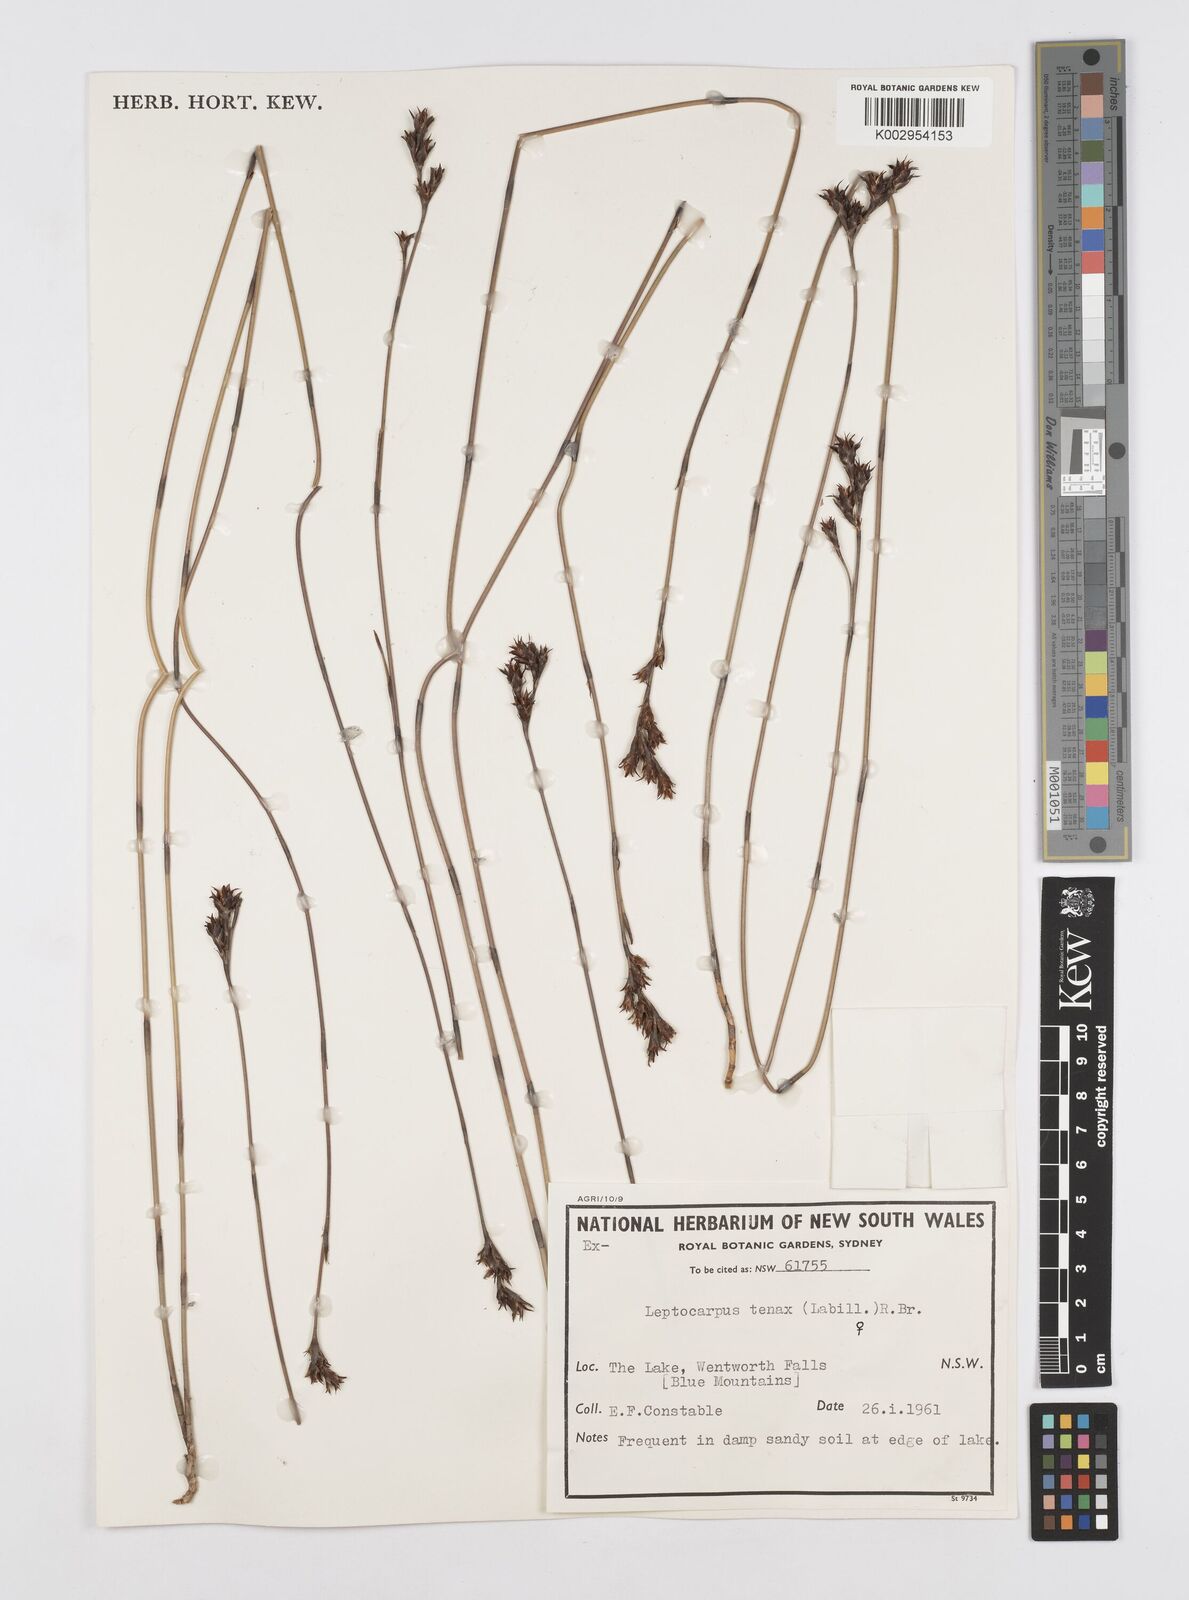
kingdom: Plantae
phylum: Tracheophyta
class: Liliopsida
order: Poales
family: Restionaceae
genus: Leptocarpus
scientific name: Leptocarpus tenax
